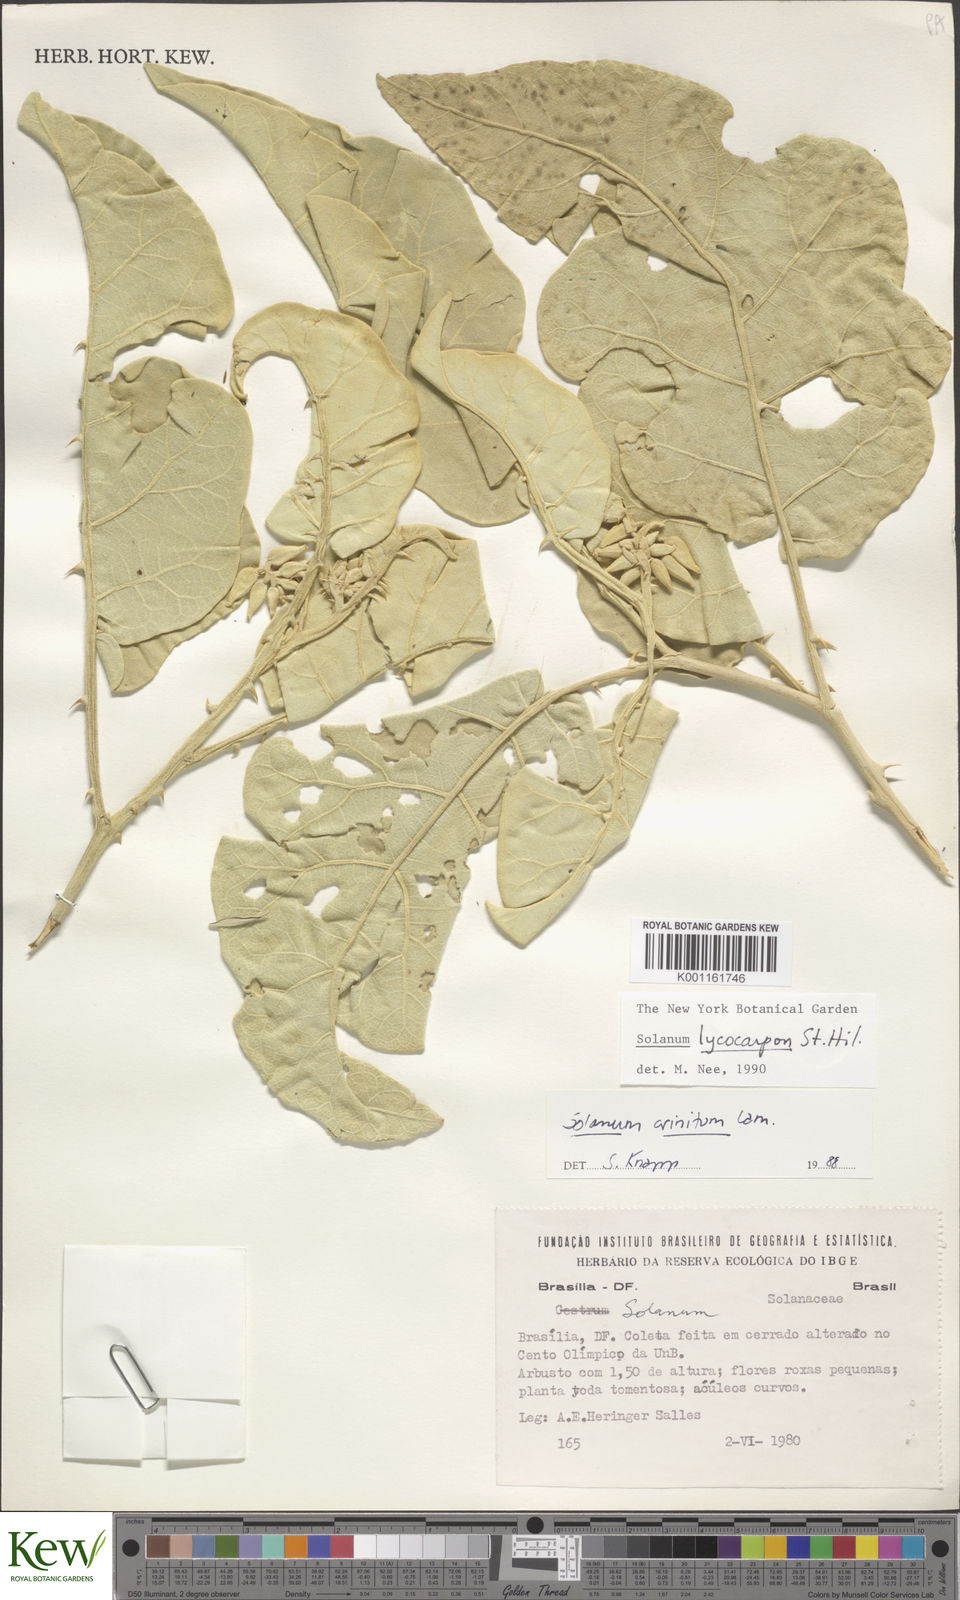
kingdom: Plantae
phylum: Tracheophyta
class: Magnoliopsida
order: Solanales
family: Solanaceae
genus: Solanum
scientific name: Solanum lycocarpum
